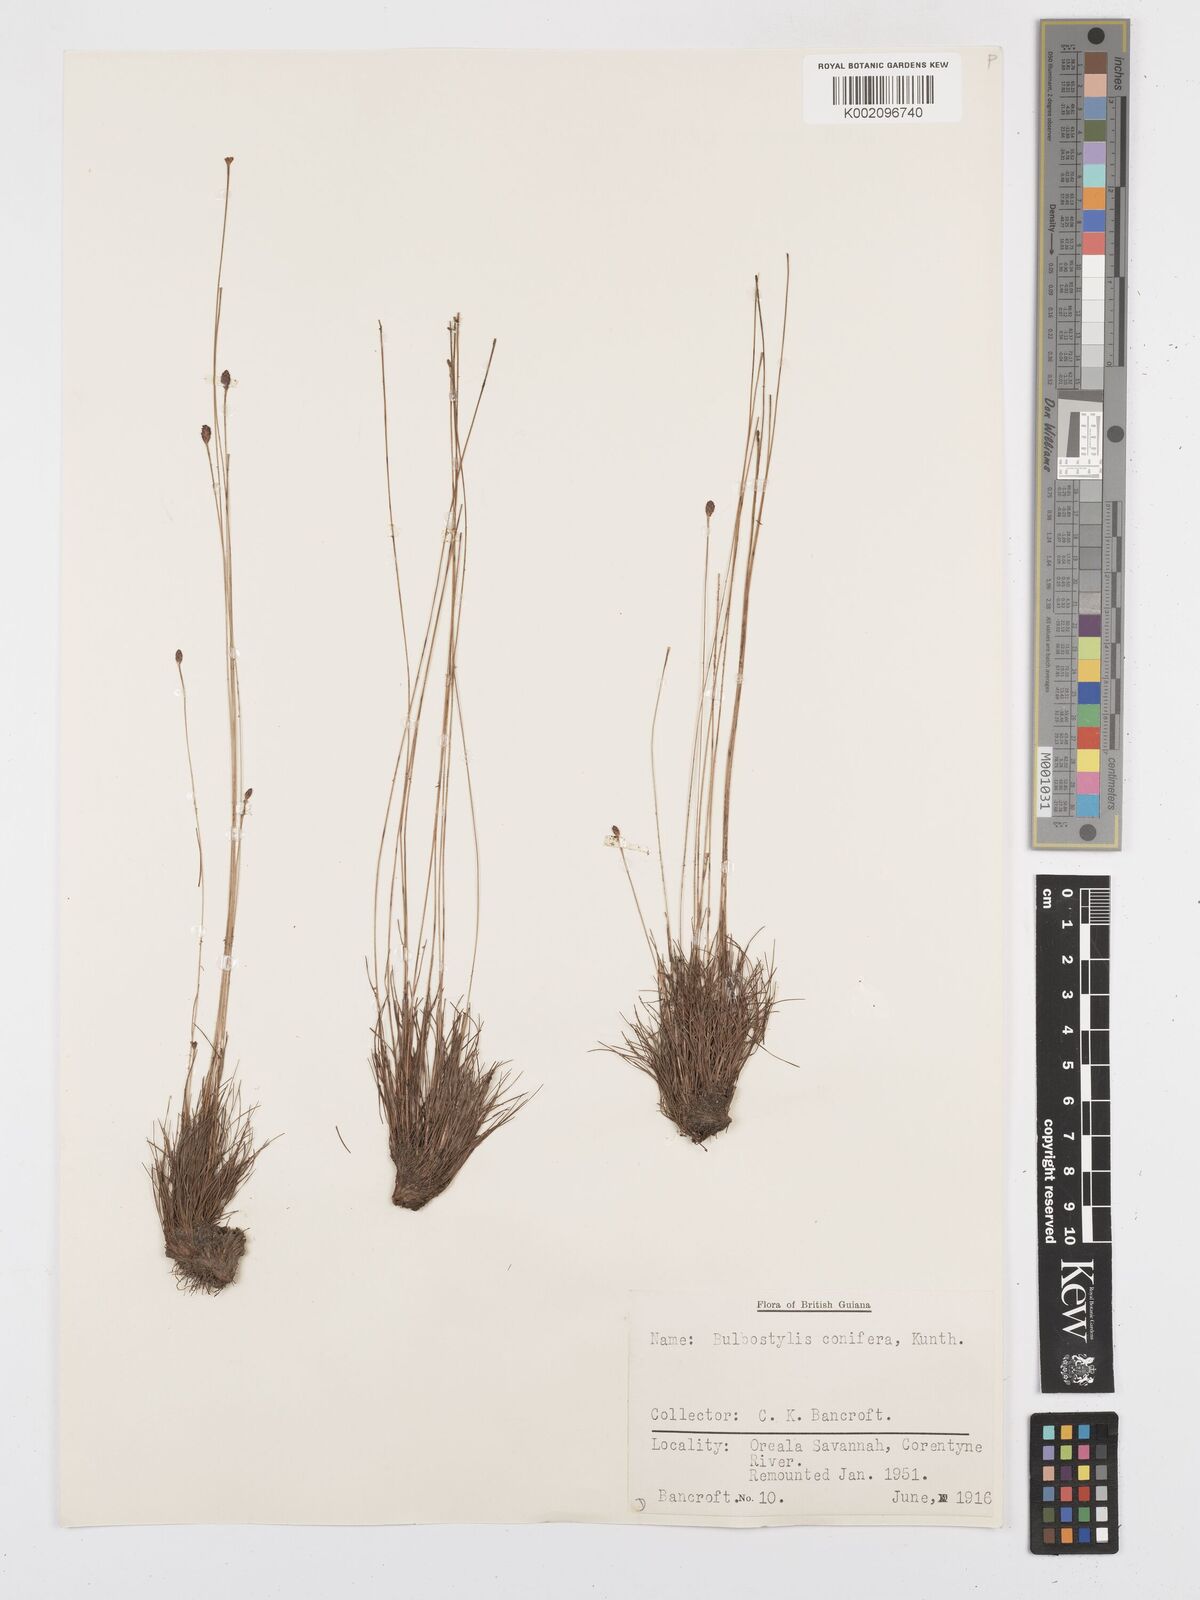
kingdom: Plantae
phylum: Tracheophyta
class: Liliopsida
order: Poales
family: Cyperaceae
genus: Bulbostylis
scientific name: Bulbostylis conifera
